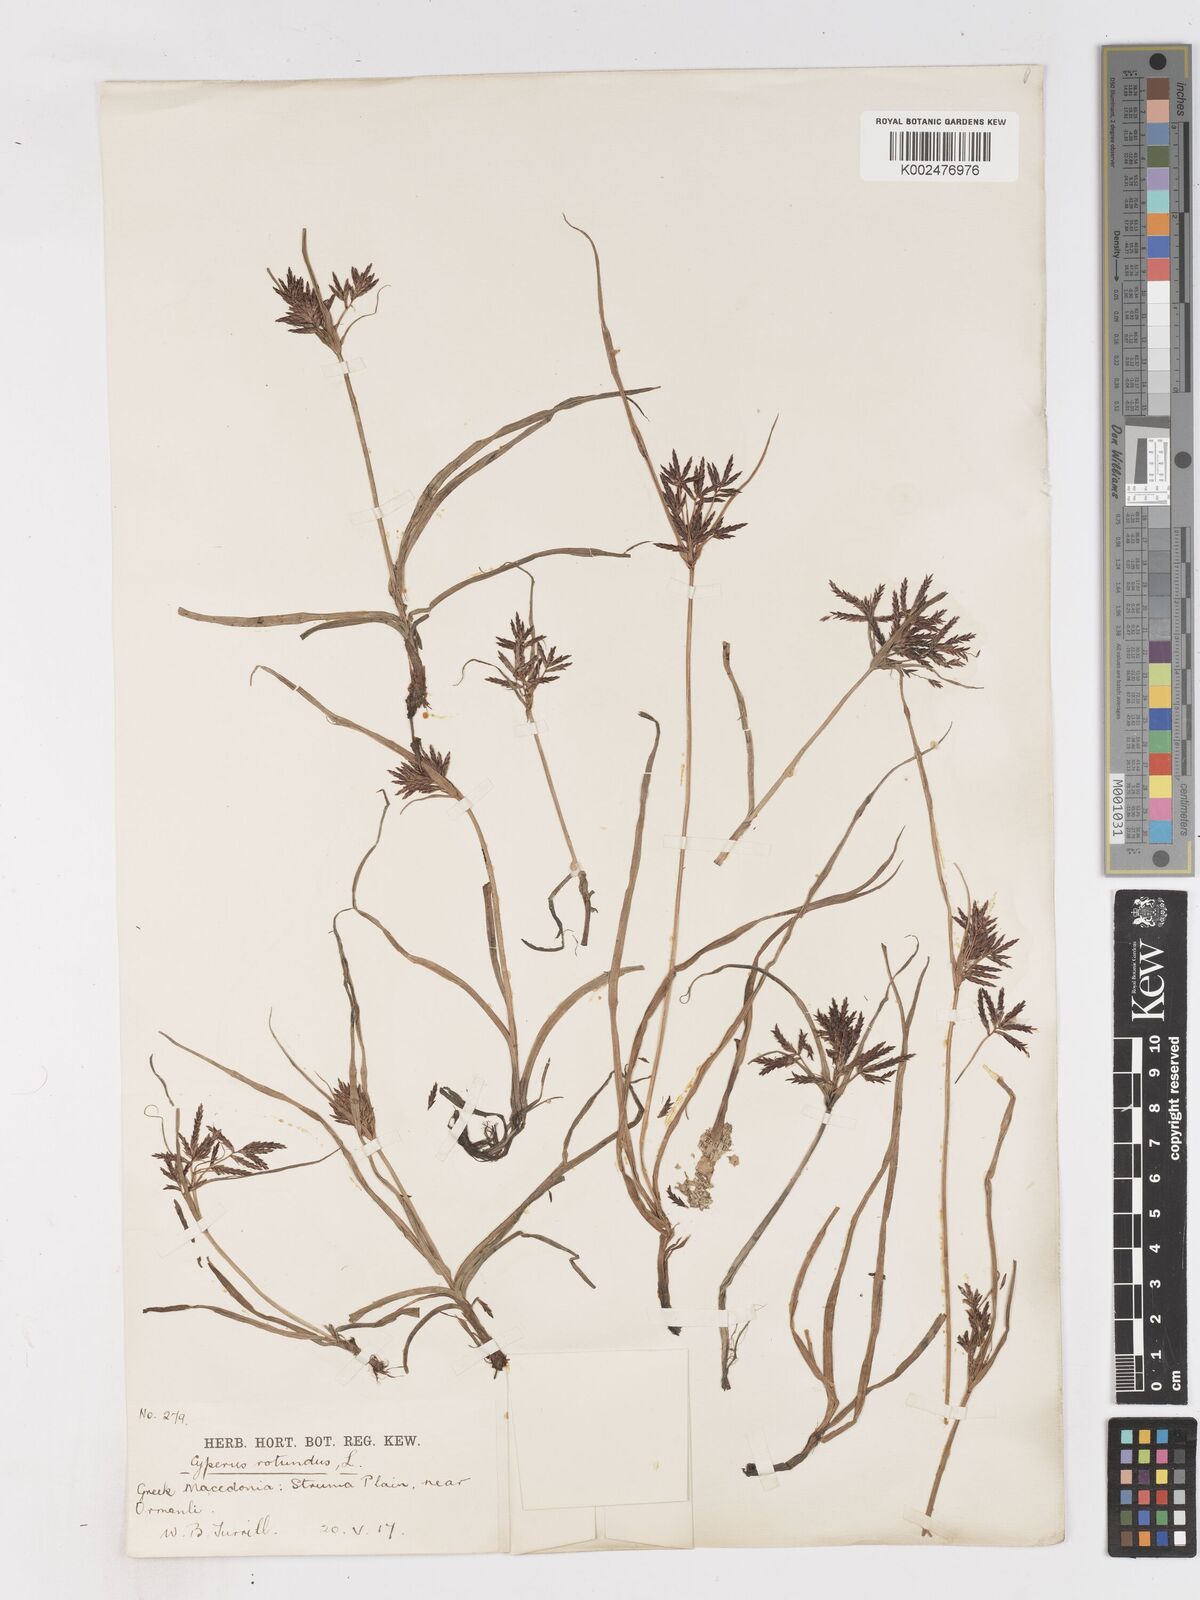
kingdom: Plantae
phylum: Tracheophyta
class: Liliopsida
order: Poales
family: Cyperaceae
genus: Cyperus
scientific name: Cyperus rotundus
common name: Nutgrass
